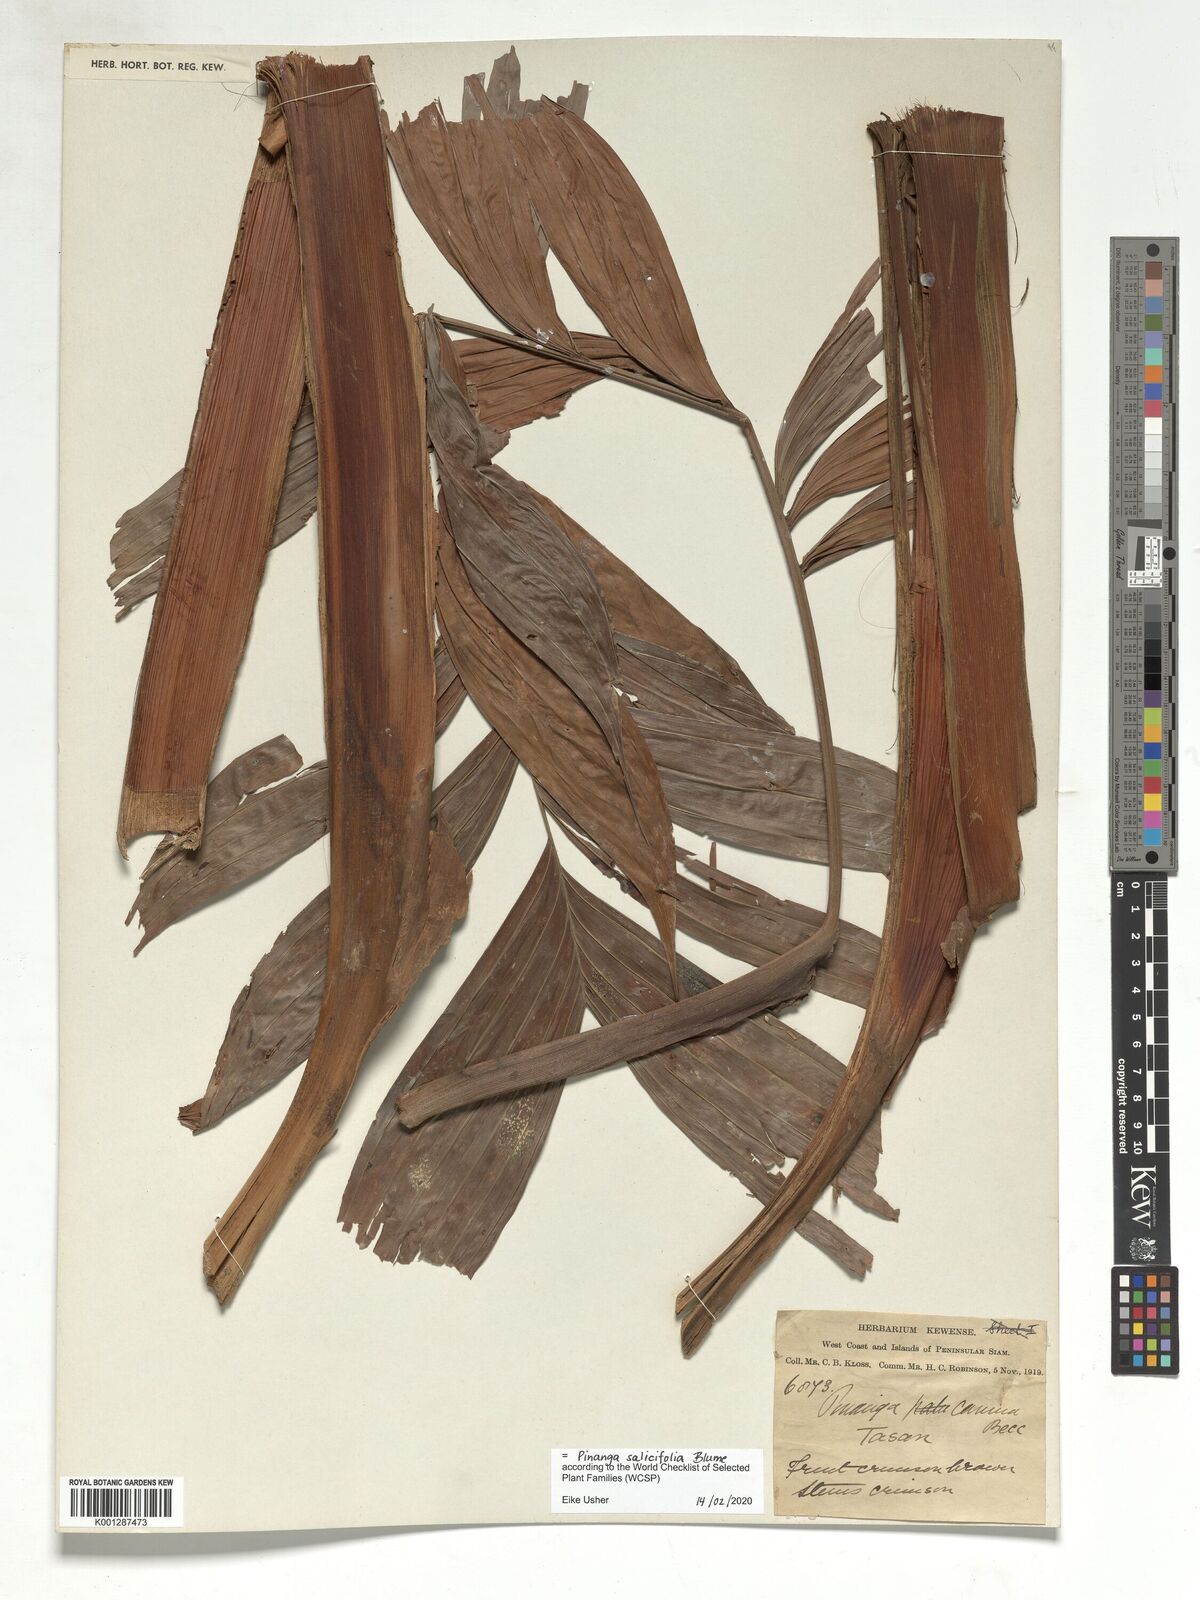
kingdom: Plantae
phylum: Tracheophyta
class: Liliopsida
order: Arecales
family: Arecaceae
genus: Pinanga
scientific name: Pinanga salicifolia
